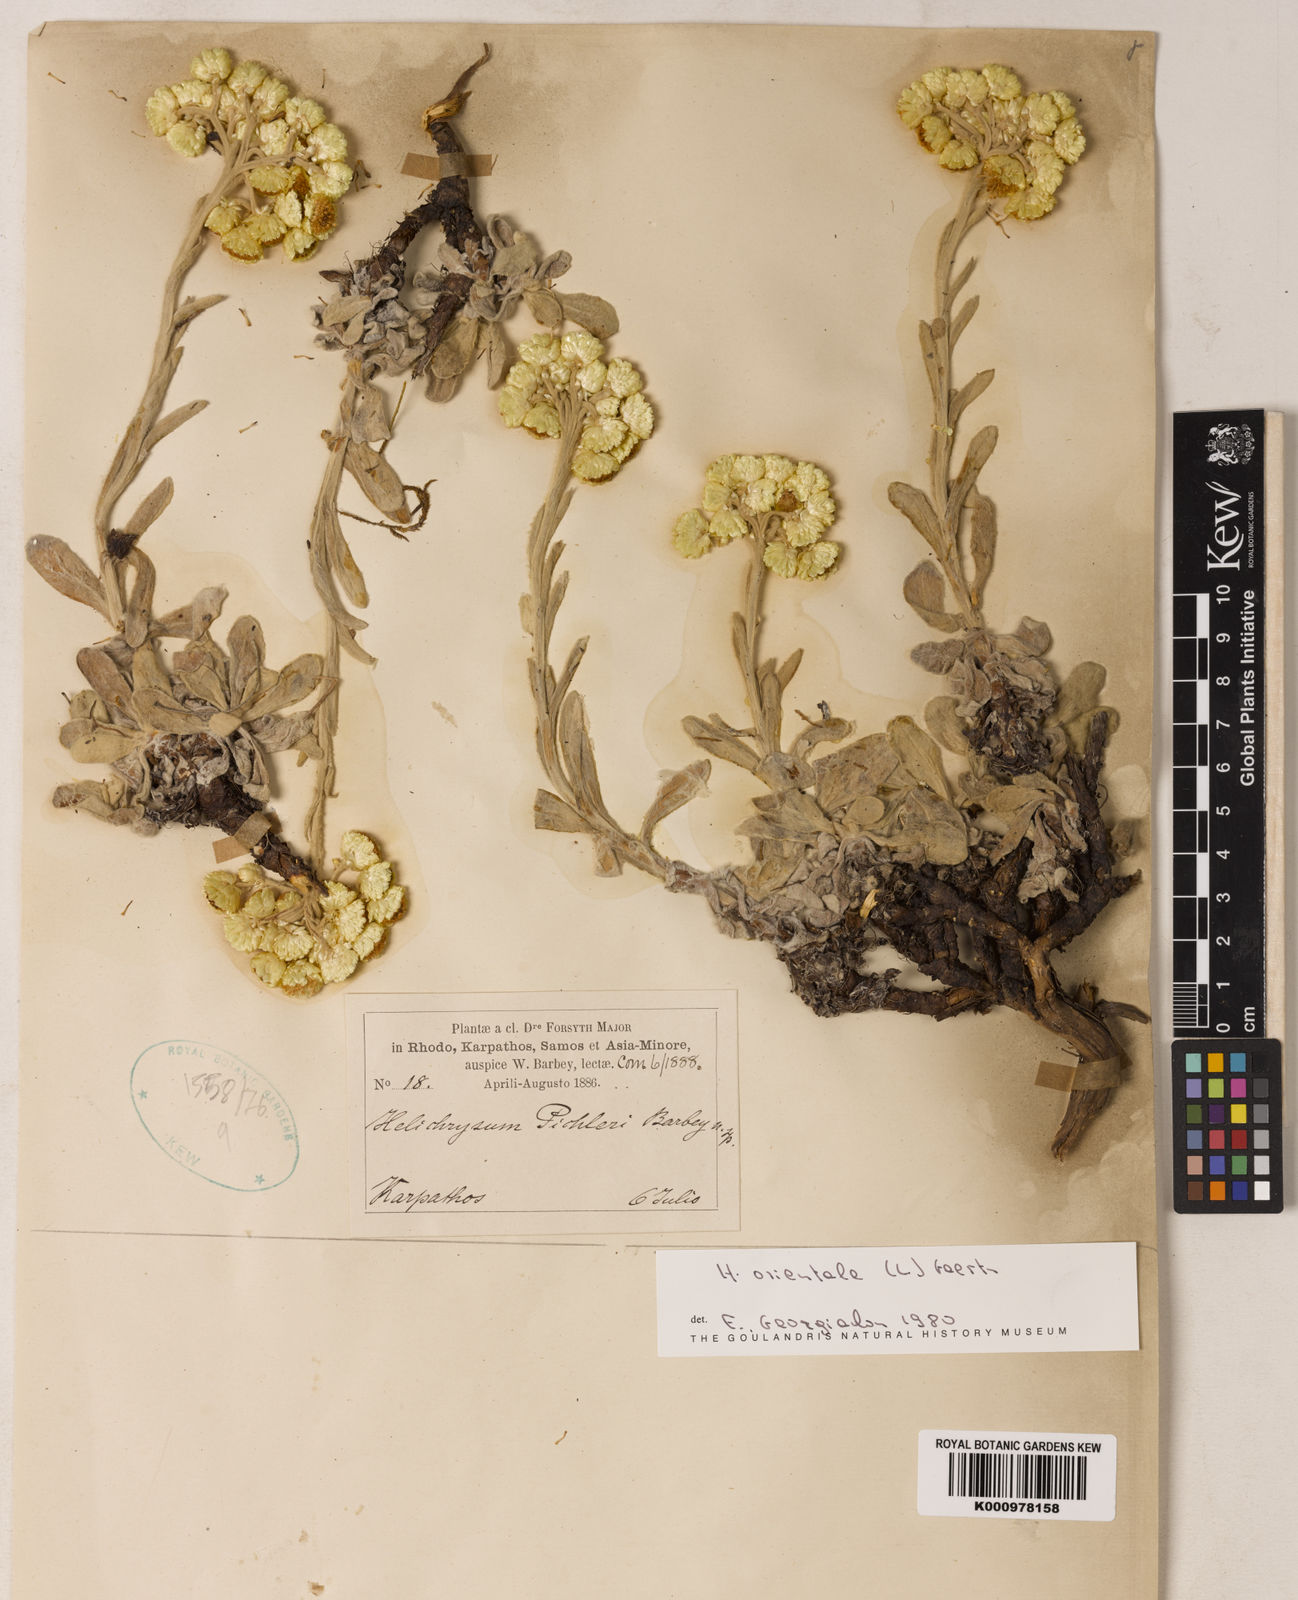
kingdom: Plantae
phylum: Tracheophyta
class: Magnoliopsida
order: Asterales
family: Asteraceae
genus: Helichrysum
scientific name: Helichrysum orientale
